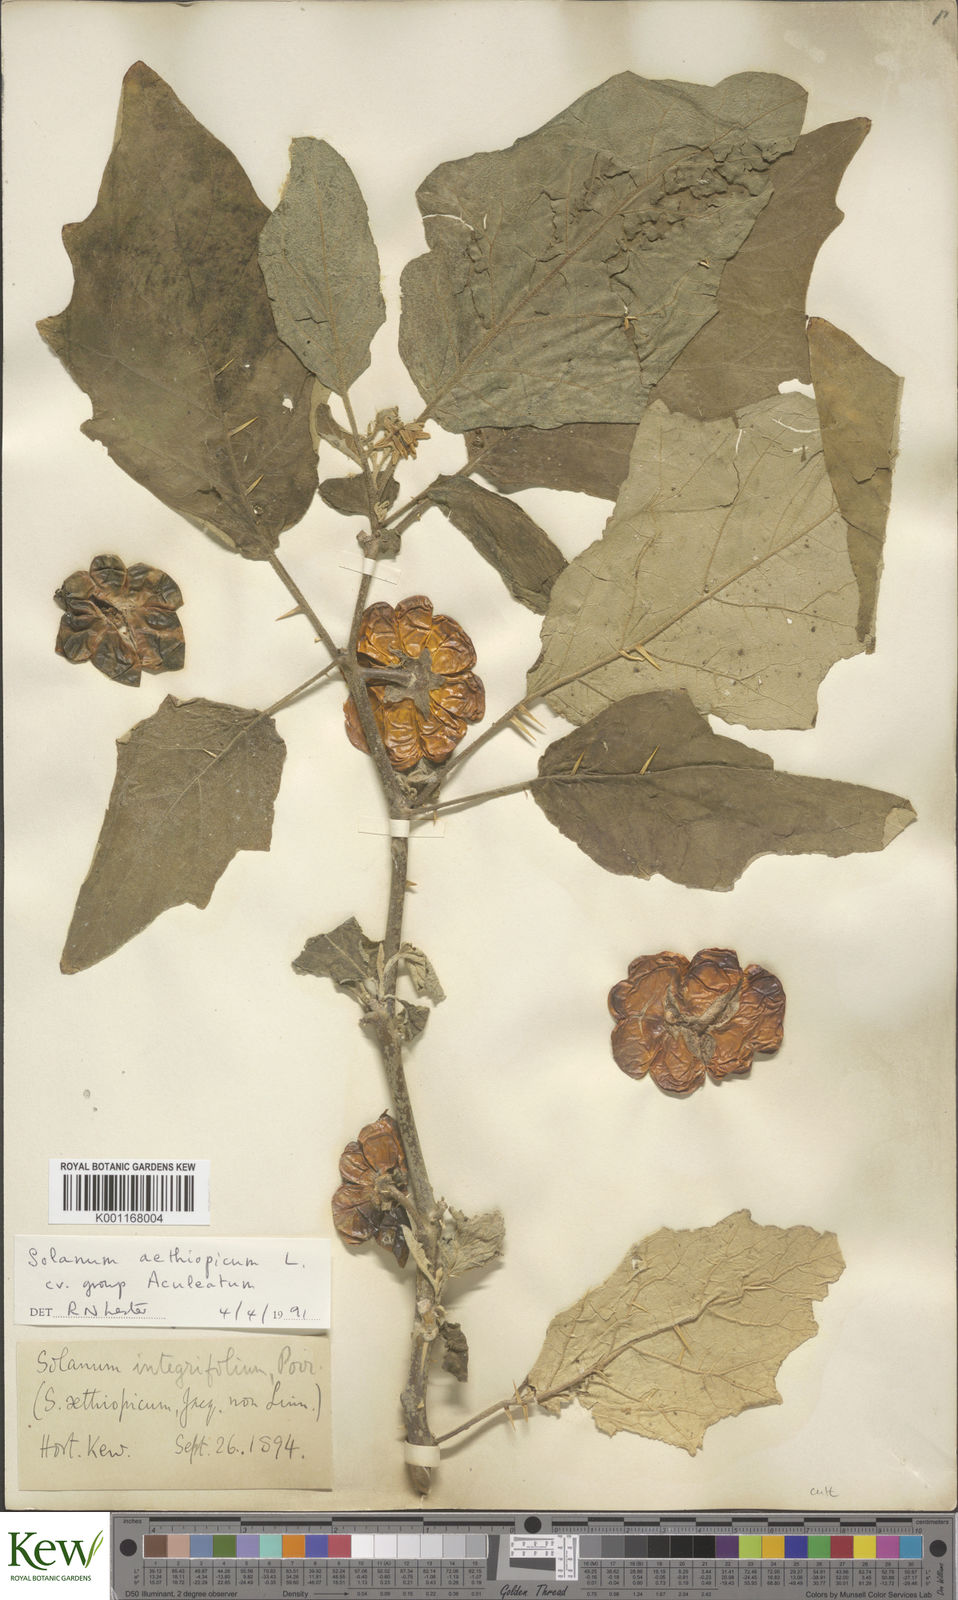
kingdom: Plantae
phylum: Tracheophyta
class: Magnoliopsida
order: Solanales
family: Solanaceae
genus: Solanum
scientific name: Solanum aethiopicum
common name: Gilo
